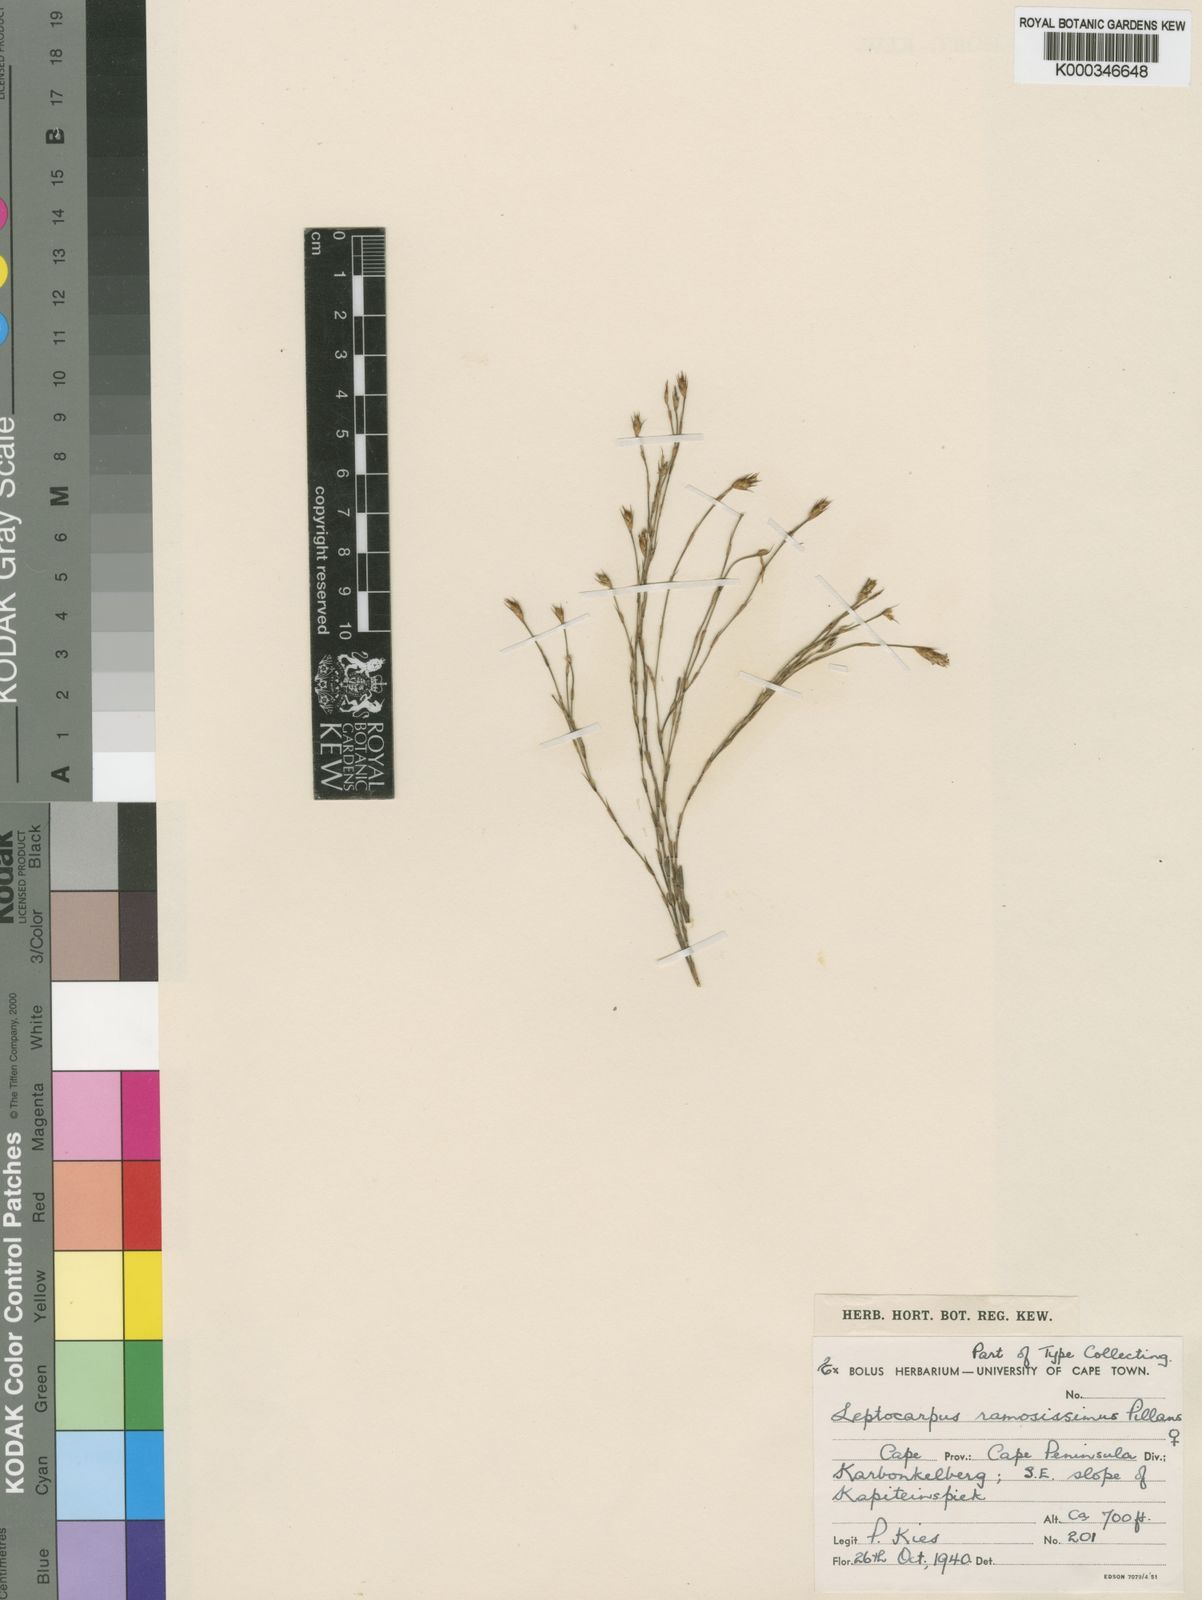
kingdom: Plantae
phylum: Tracheophyta
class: Liliopsida
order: Poales
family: Restionaceae
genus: Restio
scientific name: Restio ramosissimus
